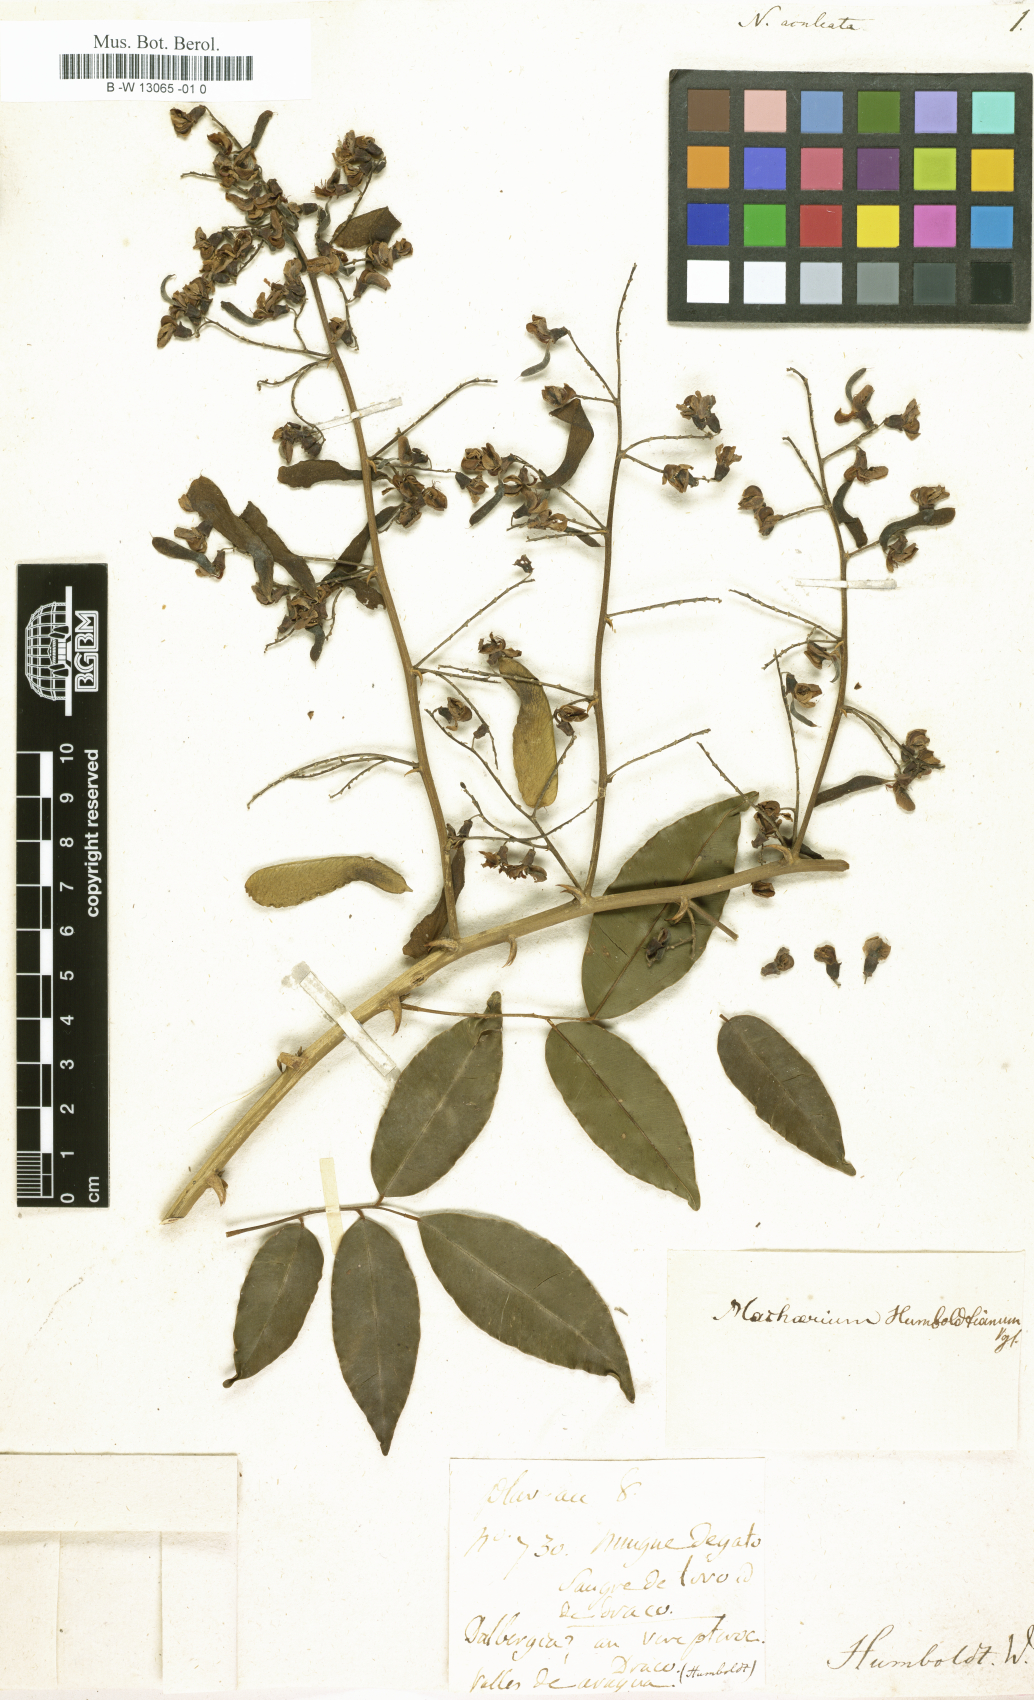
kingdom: Plantae
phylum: Tracheophyta
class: Magnoliopsida
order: Fabales
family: Fabaceae
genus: Machaerium
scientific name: Machaerium humboldtianum
